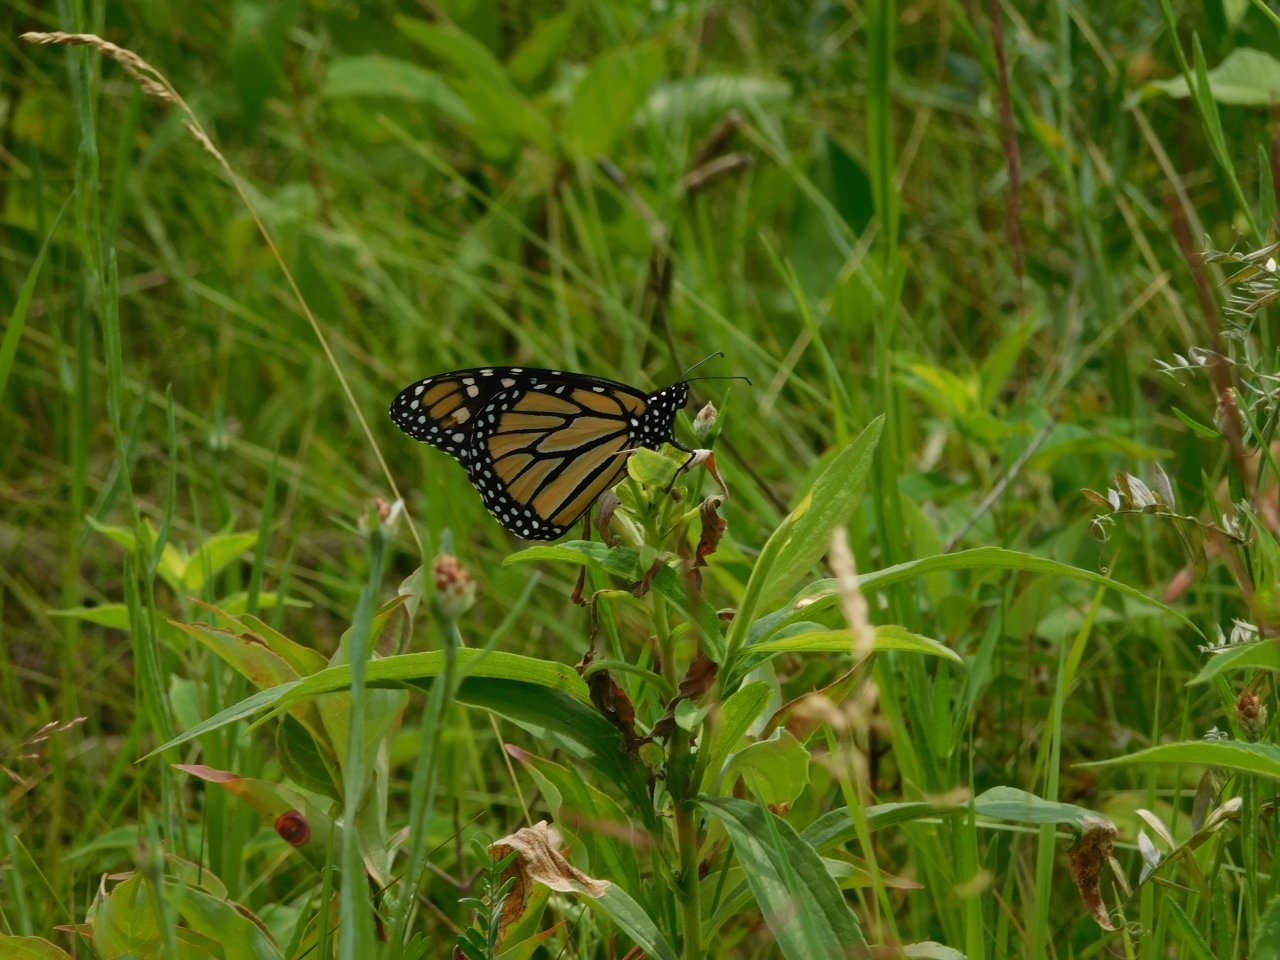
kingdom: Animalia
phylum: Arthropoda
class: Insecta
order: Lepidoptera
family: Nymphalidae
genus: Danaus
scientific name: Danaus plexippus
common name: Monarch
